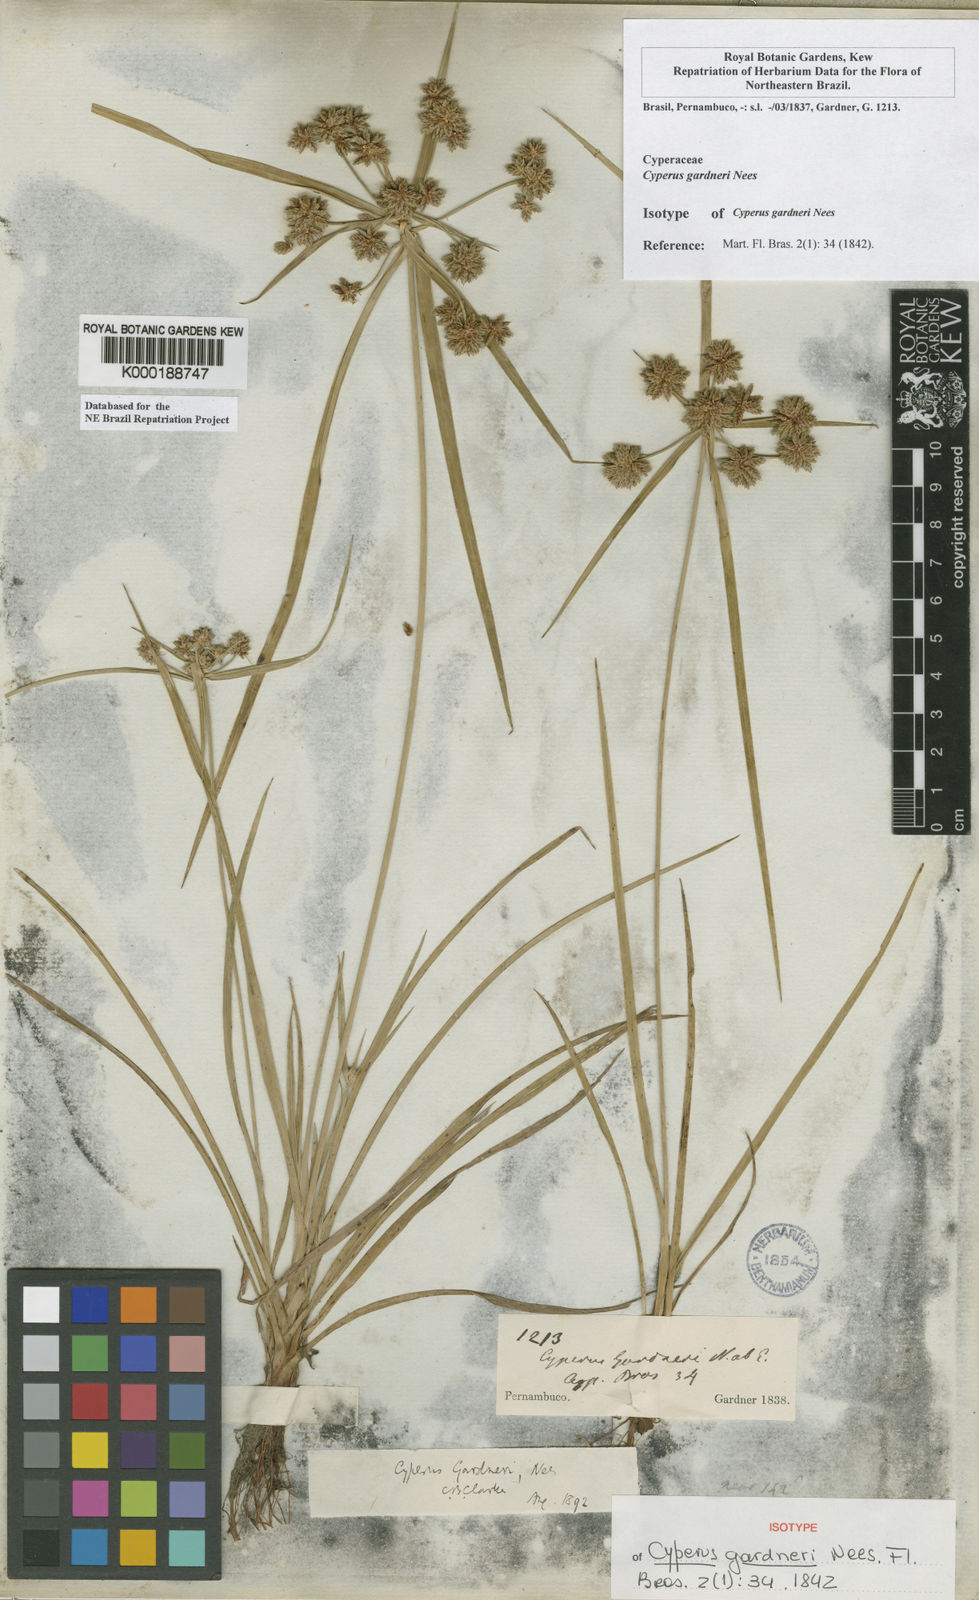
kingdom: Plantae
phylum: Tracheophyta
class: Liliopsida
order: Poales
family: Cyperaceae
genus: Cyperus
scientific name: Cyperus gardneri
